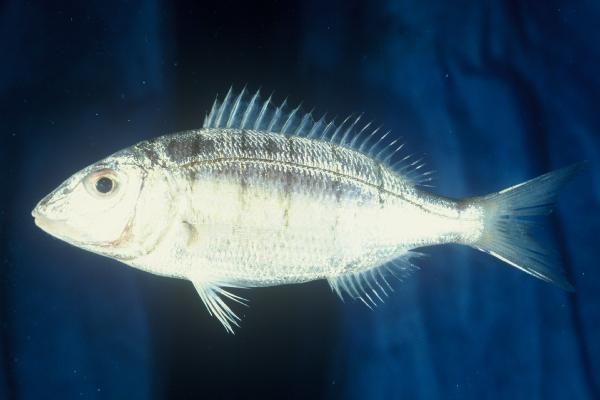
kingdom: Animalia
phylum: Chordata
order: Perciformes
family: Sparidae
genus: Lithognathus
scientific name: Lithognathus mormyrus
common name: Sand steenbras
